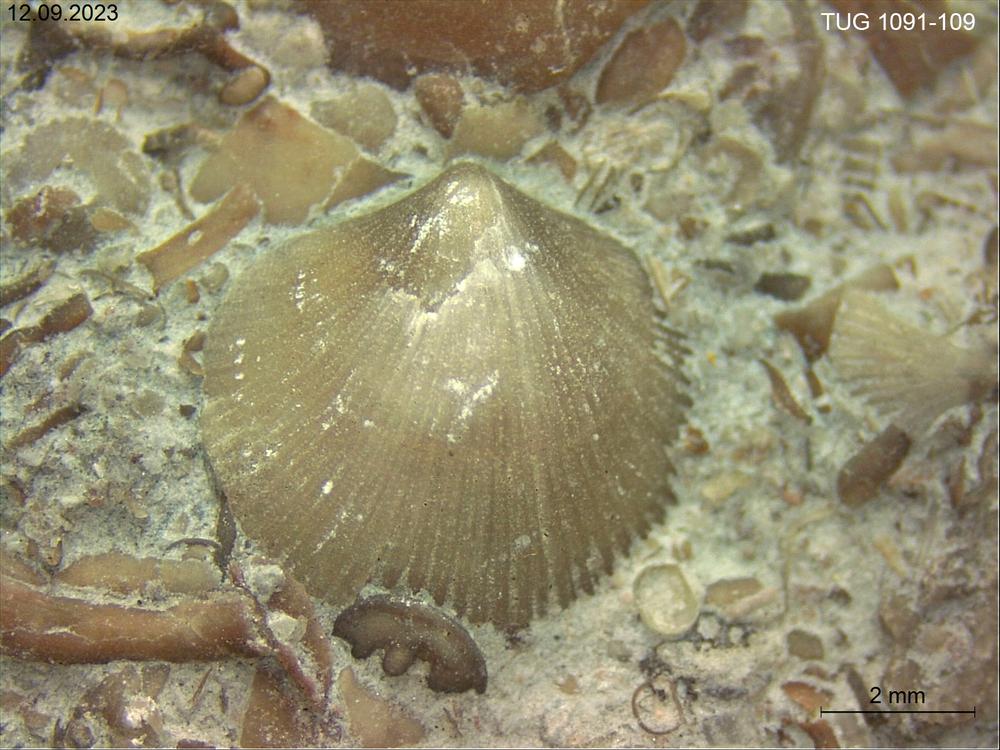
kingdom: Animalia
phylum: Brachiopoda
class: Rhynchonellata
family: Dalmanellidae
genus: Resserella
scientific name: Resserella
